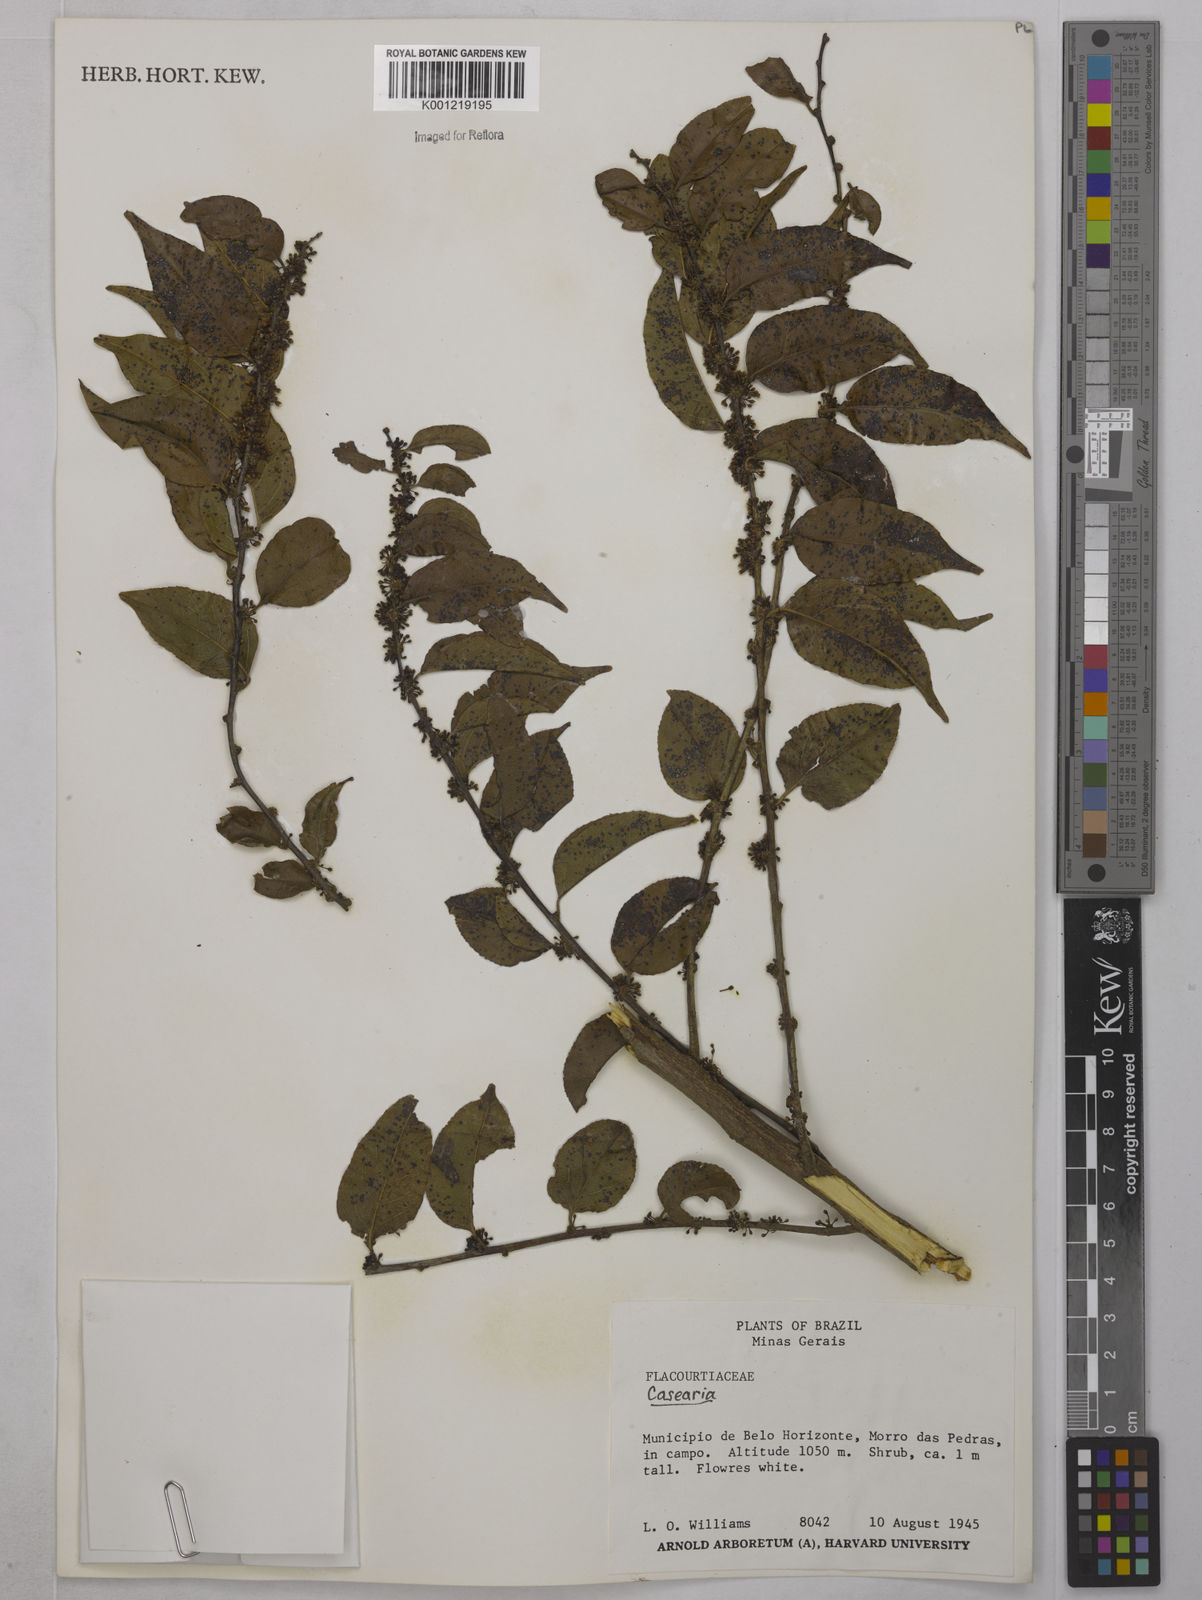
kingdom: Plantae
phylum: Tracheophyta
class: Magnoliopsida
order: Malpighiales
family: Salicaceae
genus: Casearia
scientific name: Casearia
